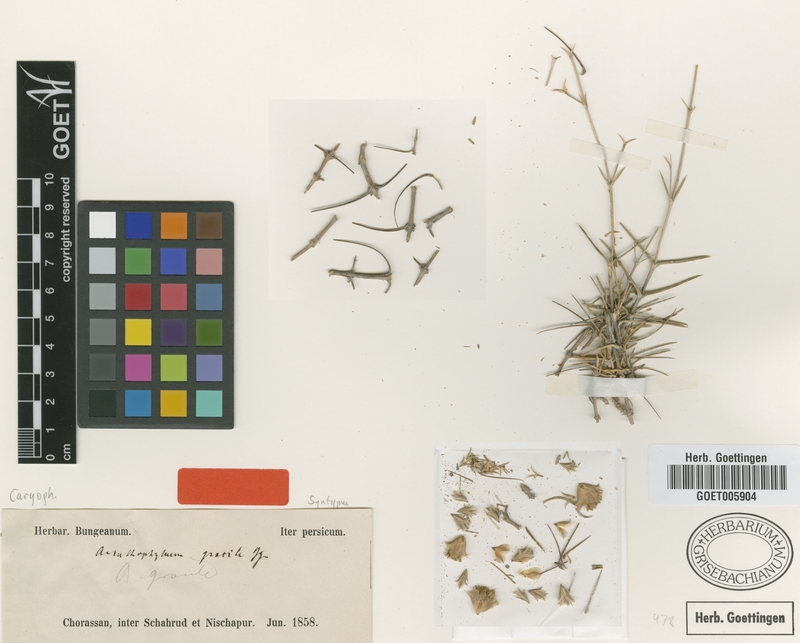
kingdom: Plantae
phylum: Tracheophyta
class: Magnoliopsida
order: Caryophyllales
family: Caryophyllaceae
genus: Acanthophyllum
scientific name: Acanthophyllum gracile
